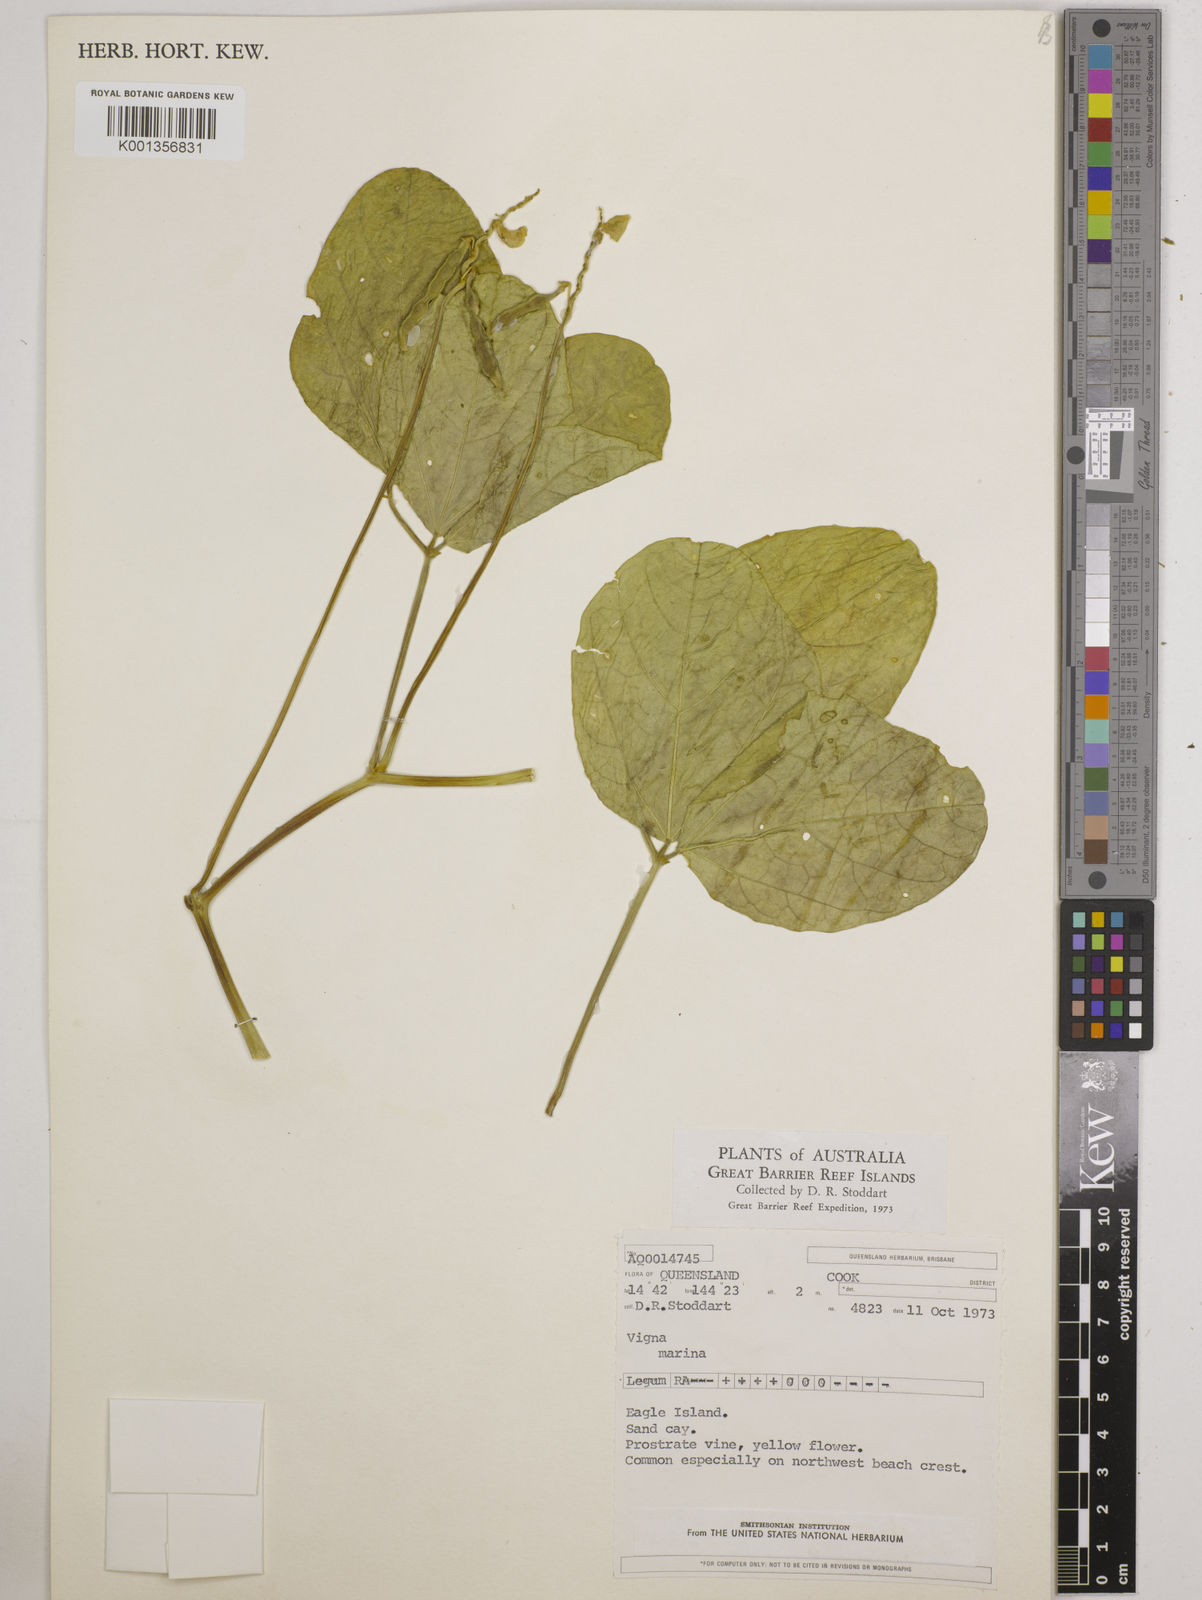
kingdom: Plantae
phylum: Tracheophyta
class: Magnoliopsida
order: Fabales
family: Fabaceae
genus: Vigna
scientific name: Vigna marina
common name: Dune-bean
